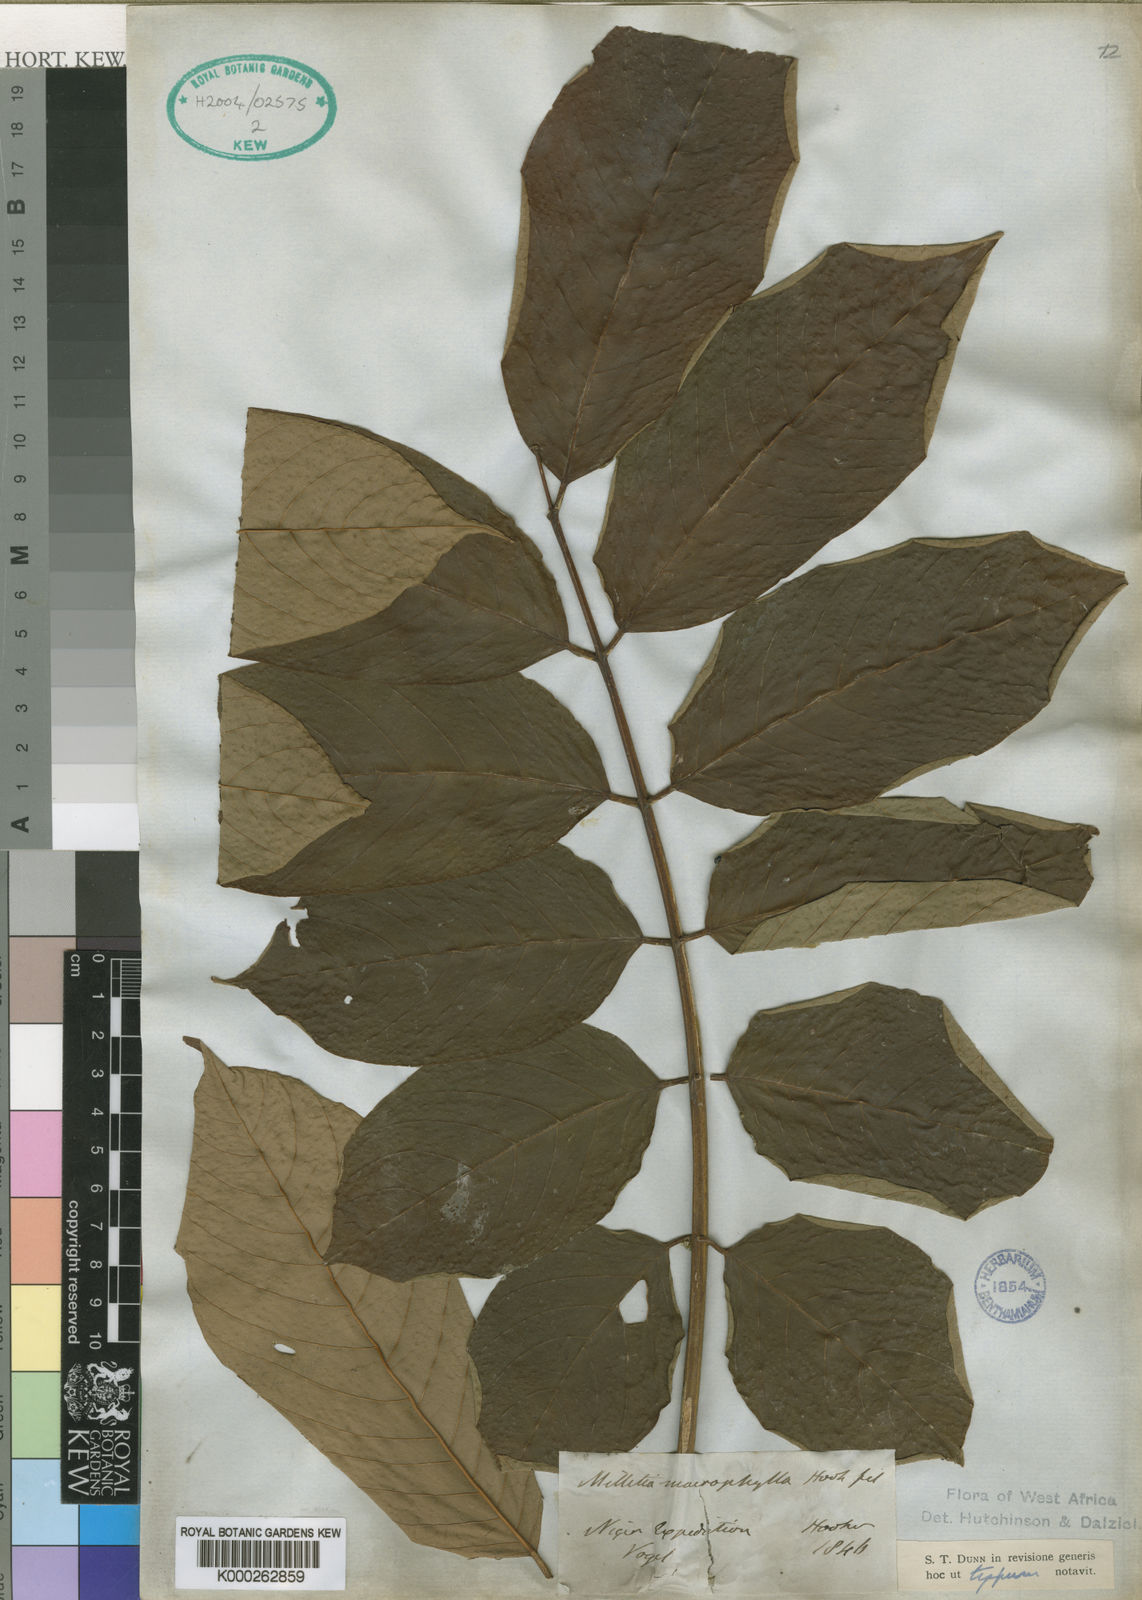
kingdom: Plantae
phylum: Tracheophyta
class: Magnoliopsida
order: Fabales
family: Fabaceae
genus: Millettia
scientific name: Millettia
